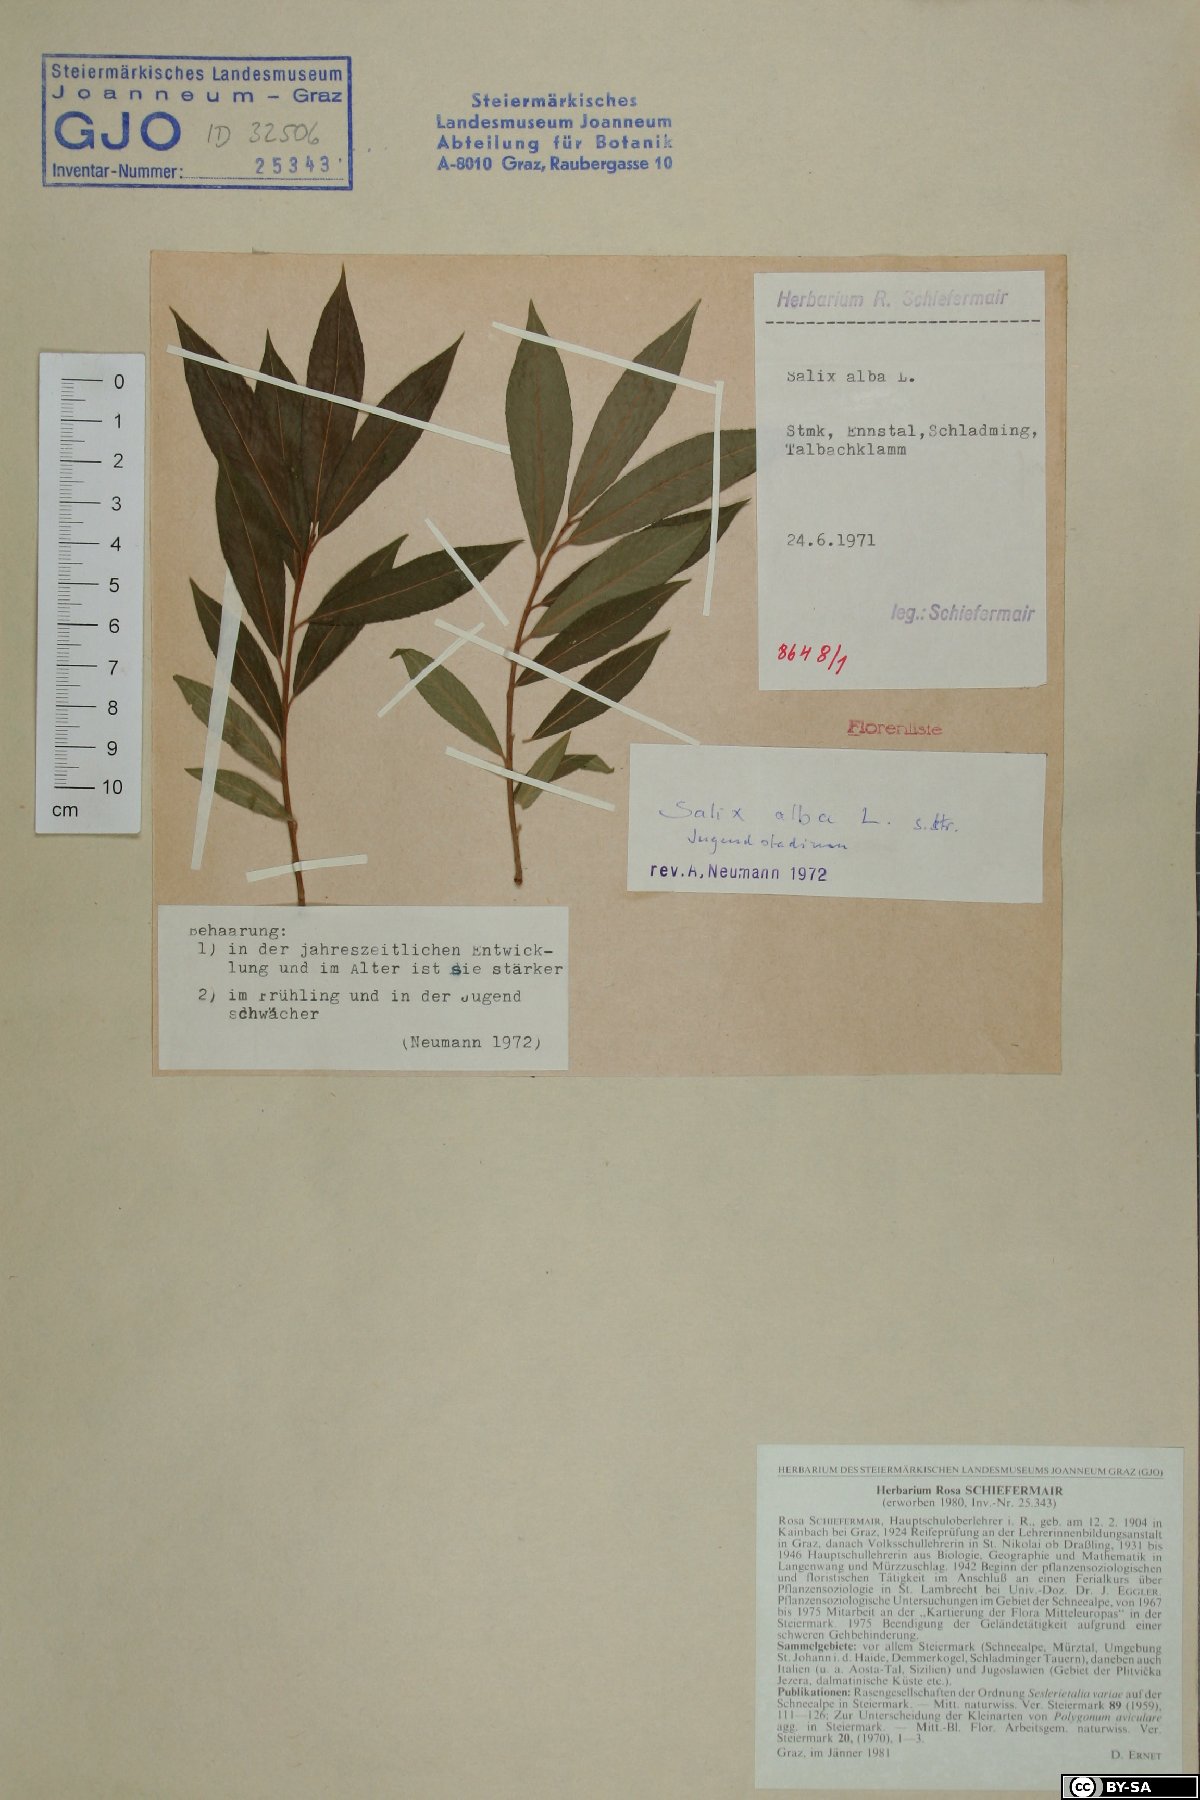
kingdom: Plantae
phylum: Tracheophyta
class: Magnoliopsida
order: Malpighiales
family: Salicaceae
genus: Salix
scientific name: Salix alba
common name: White willow
